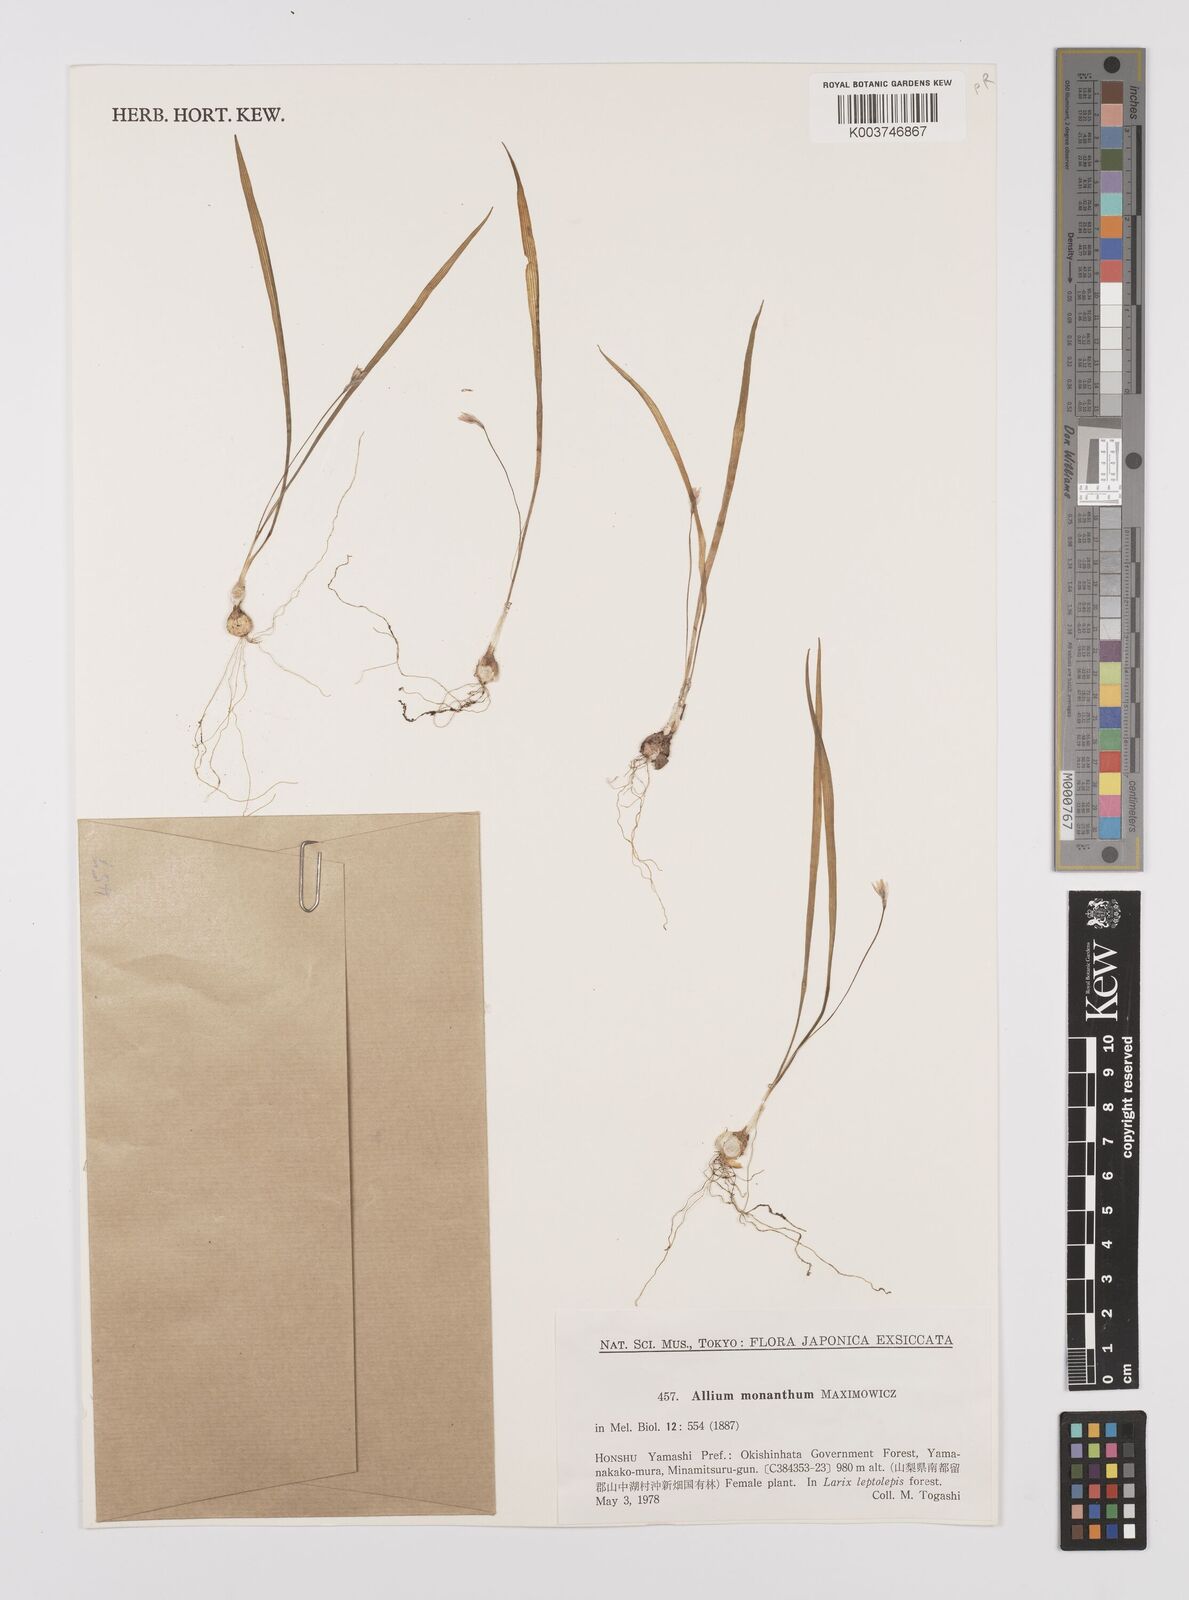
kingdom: Plantae
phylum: Tracheophyta
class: Liliopsida
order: Asparagales
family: Amaryllidaceae
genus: Allium
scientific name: Allium monanthum
